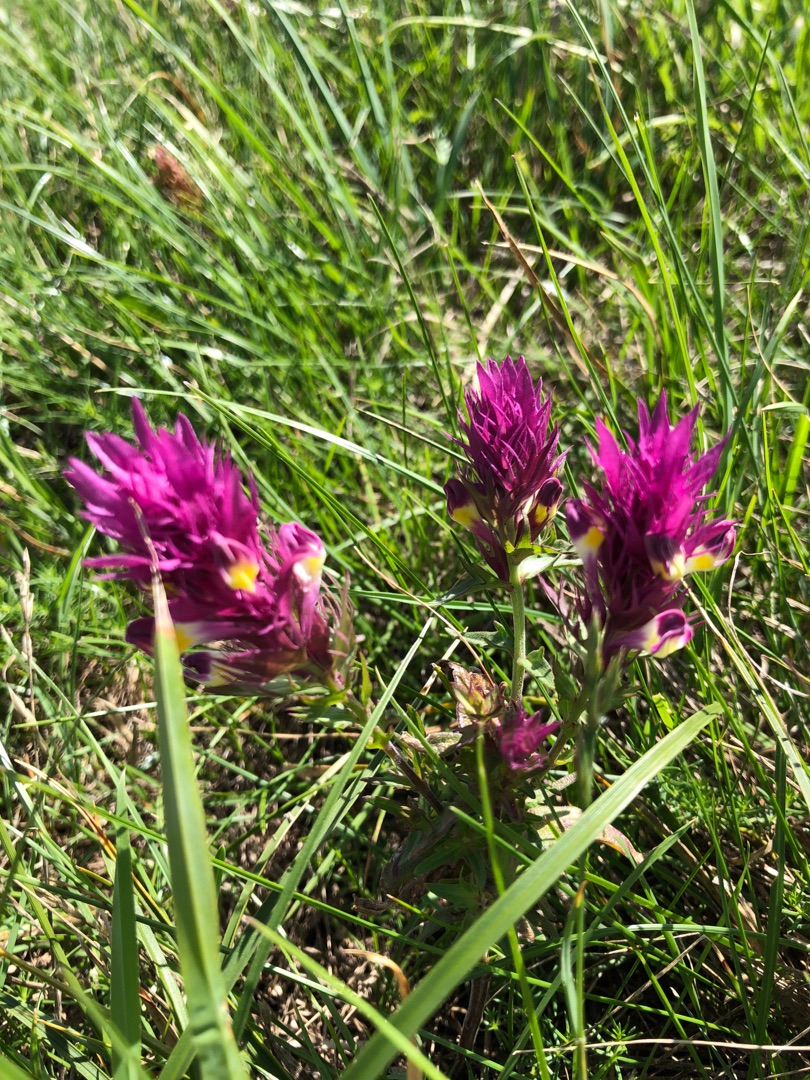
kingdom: Plantae
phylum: Tracheophyta
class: Magnoliopsida
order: Lamiales
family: Orobanchaceae
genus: Melampyrum
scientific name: Melampyrum arvense
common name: Ager-kohvede
